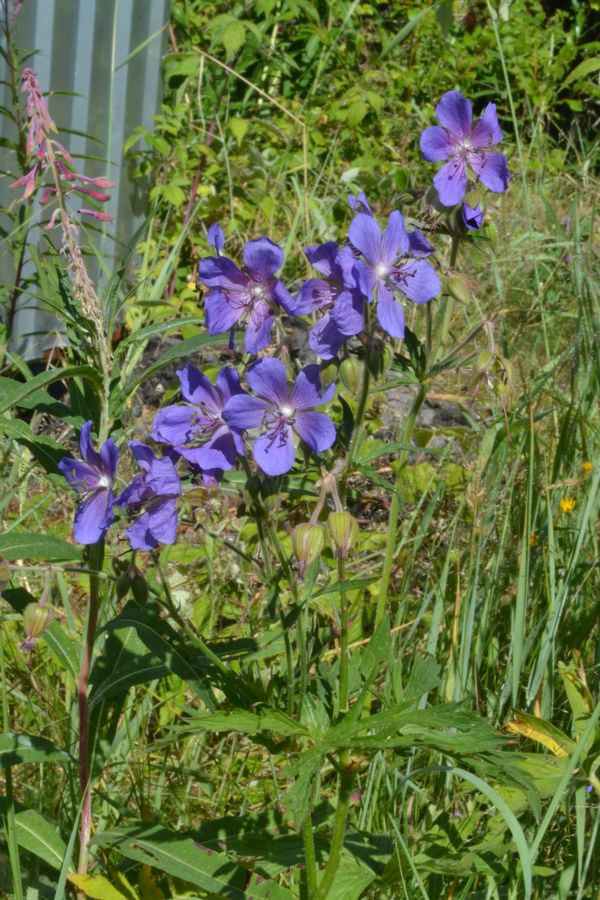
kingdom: Plantae
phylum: Tracheophyta
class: Magnoliopsida
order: Geraniales
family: Geraniaceae
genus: Geranium
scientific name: Geranium pratense
